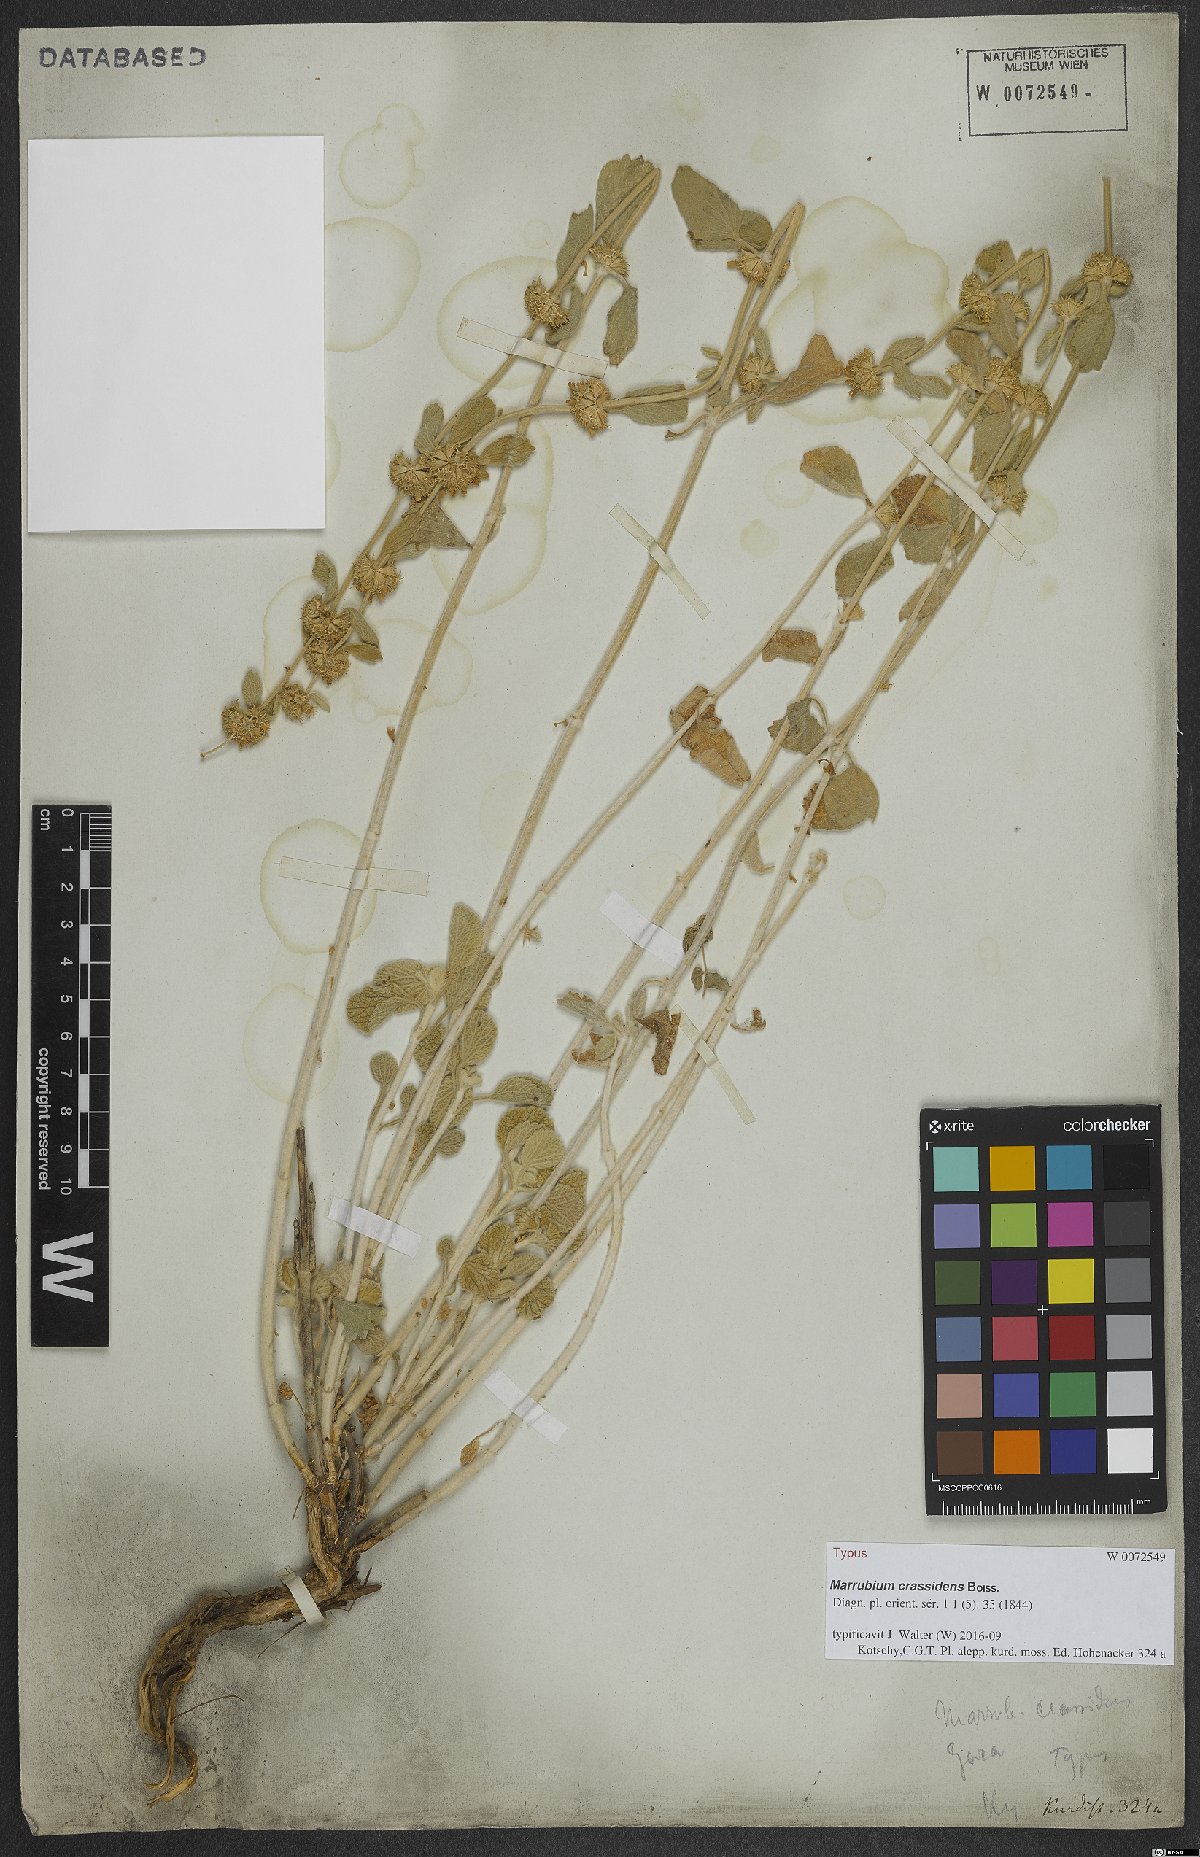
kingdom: Plantae
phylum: Tracheophyta
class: Magnoliopsida
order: Lamiales
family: Lamiaceae
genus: Marrubium
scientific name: Marrubium crassidens
